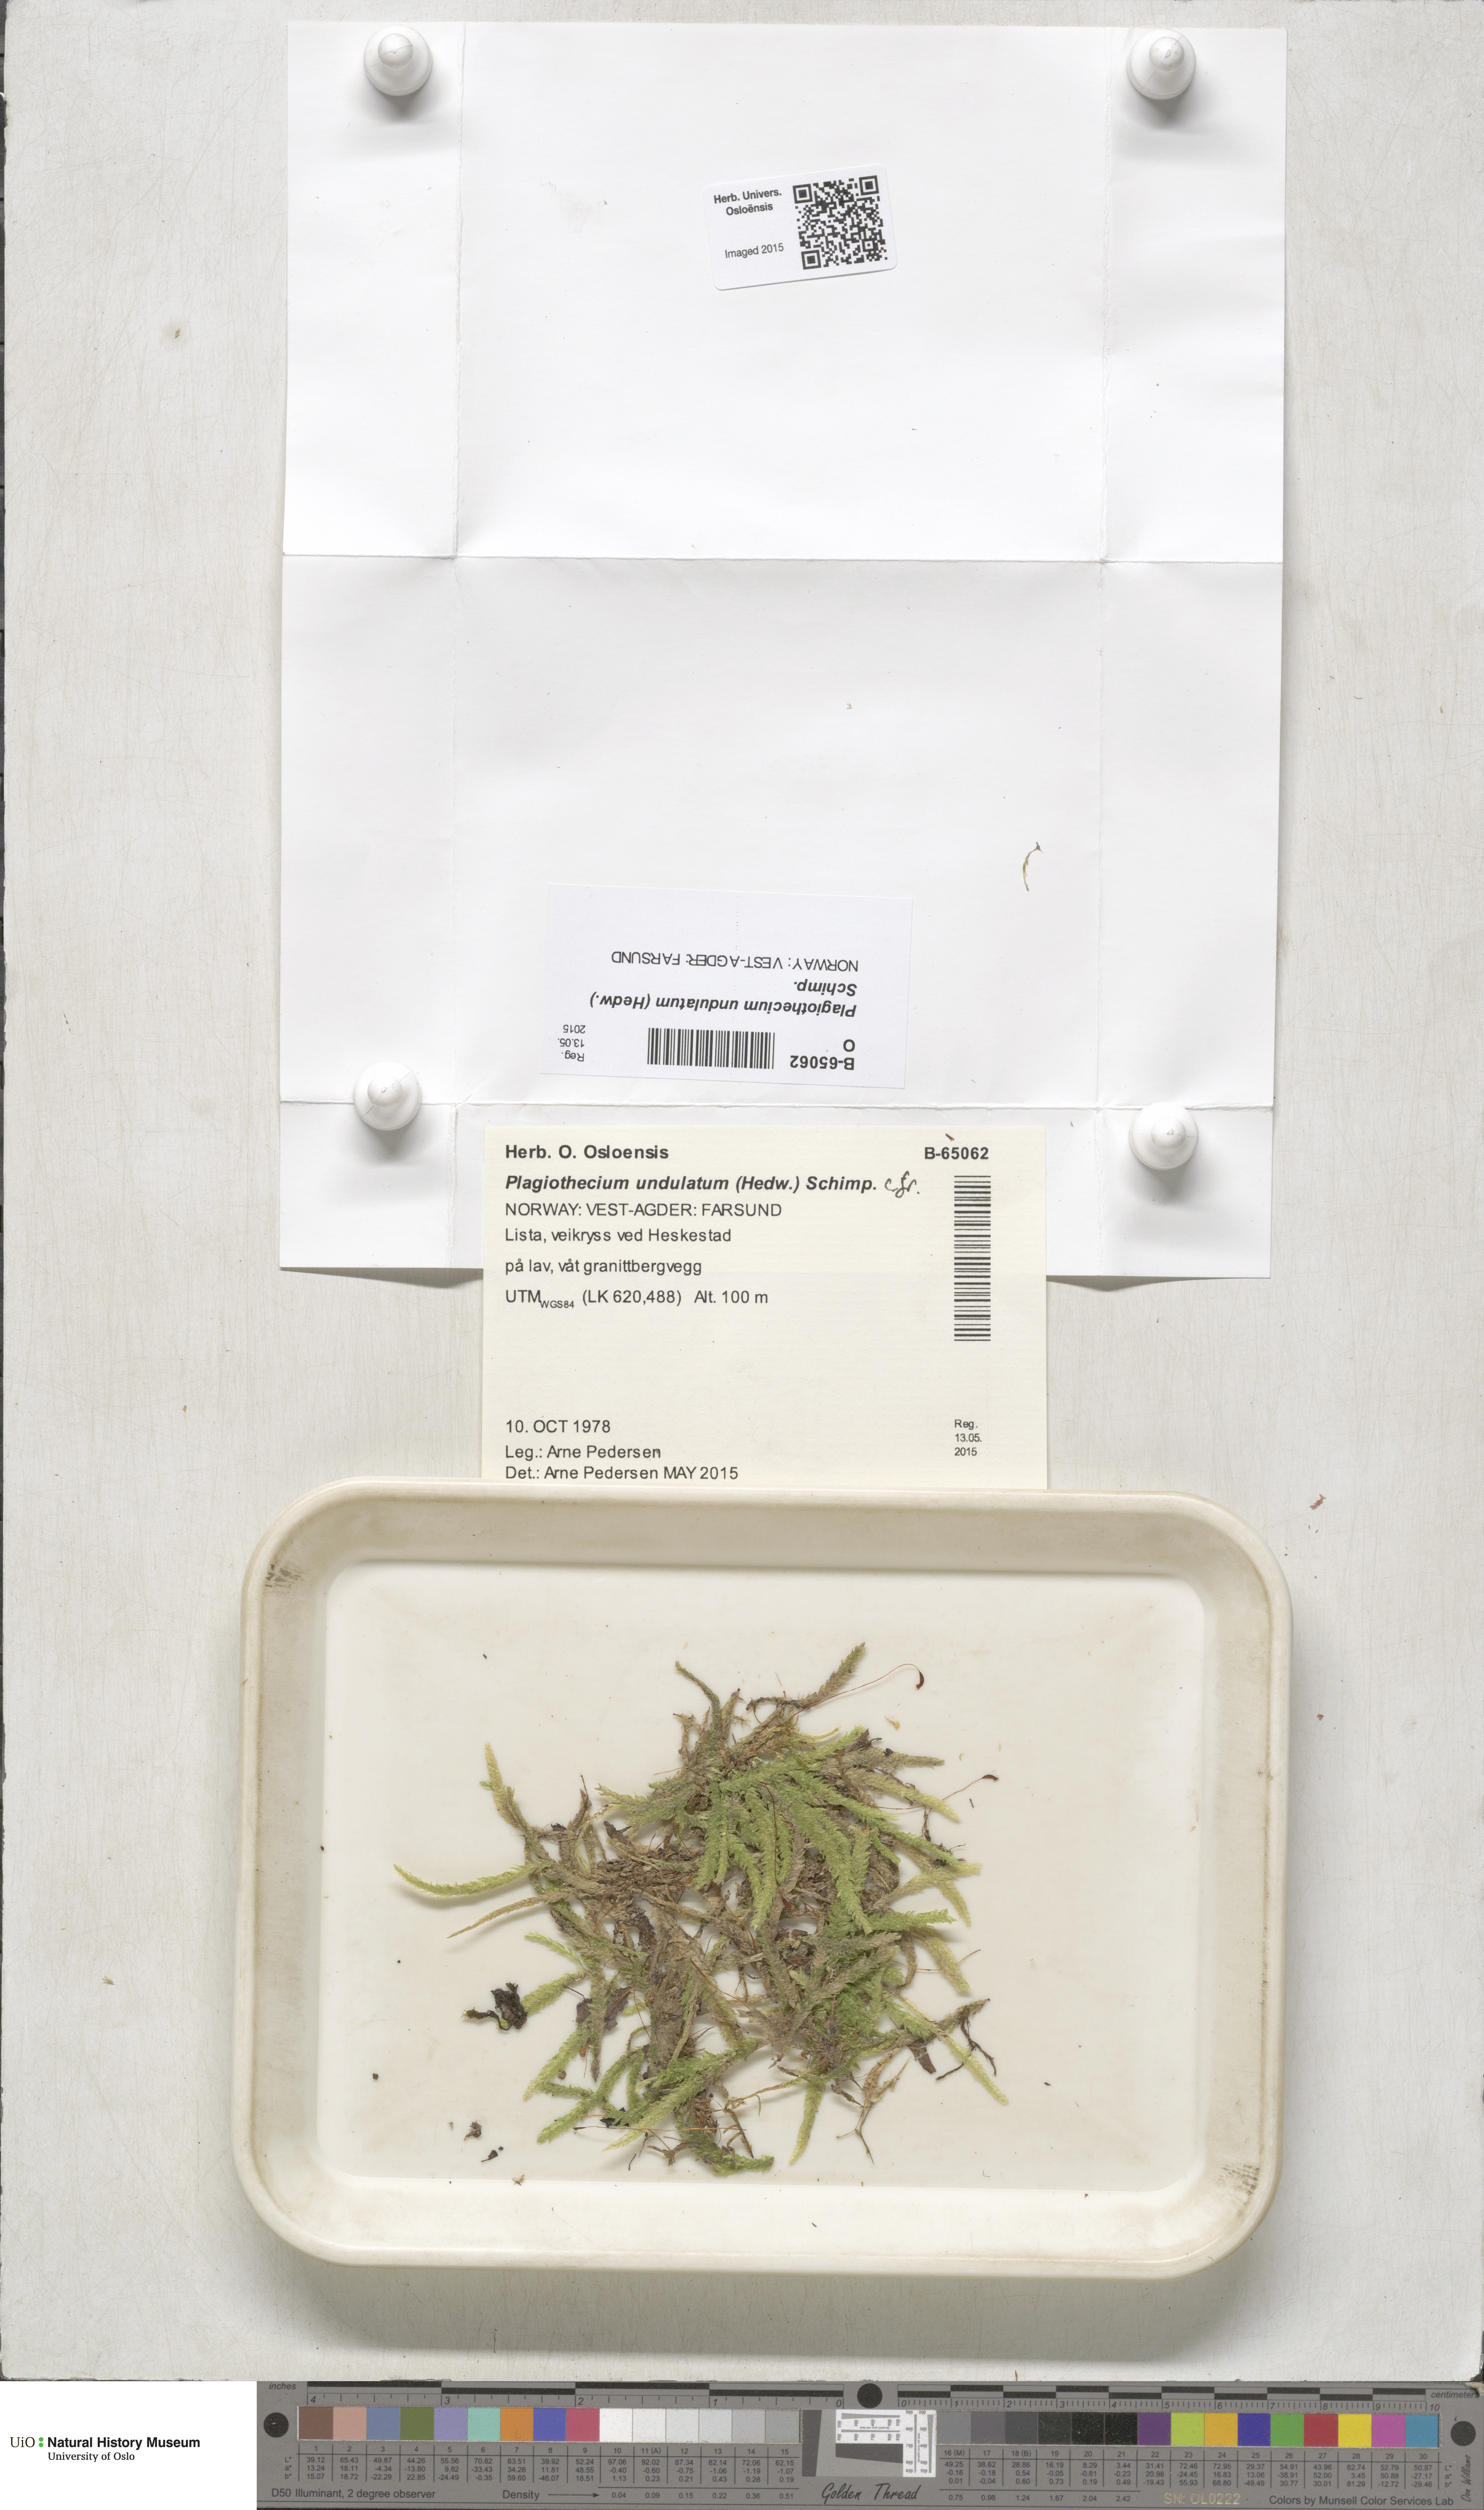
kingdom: Plantae
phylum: Bryophyta
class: Bryopsida
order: Hypnales
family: Plagiotheciaceae
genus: Plagiothecium
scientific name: Plagiothecium undulatum
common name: Waved silk-moss
